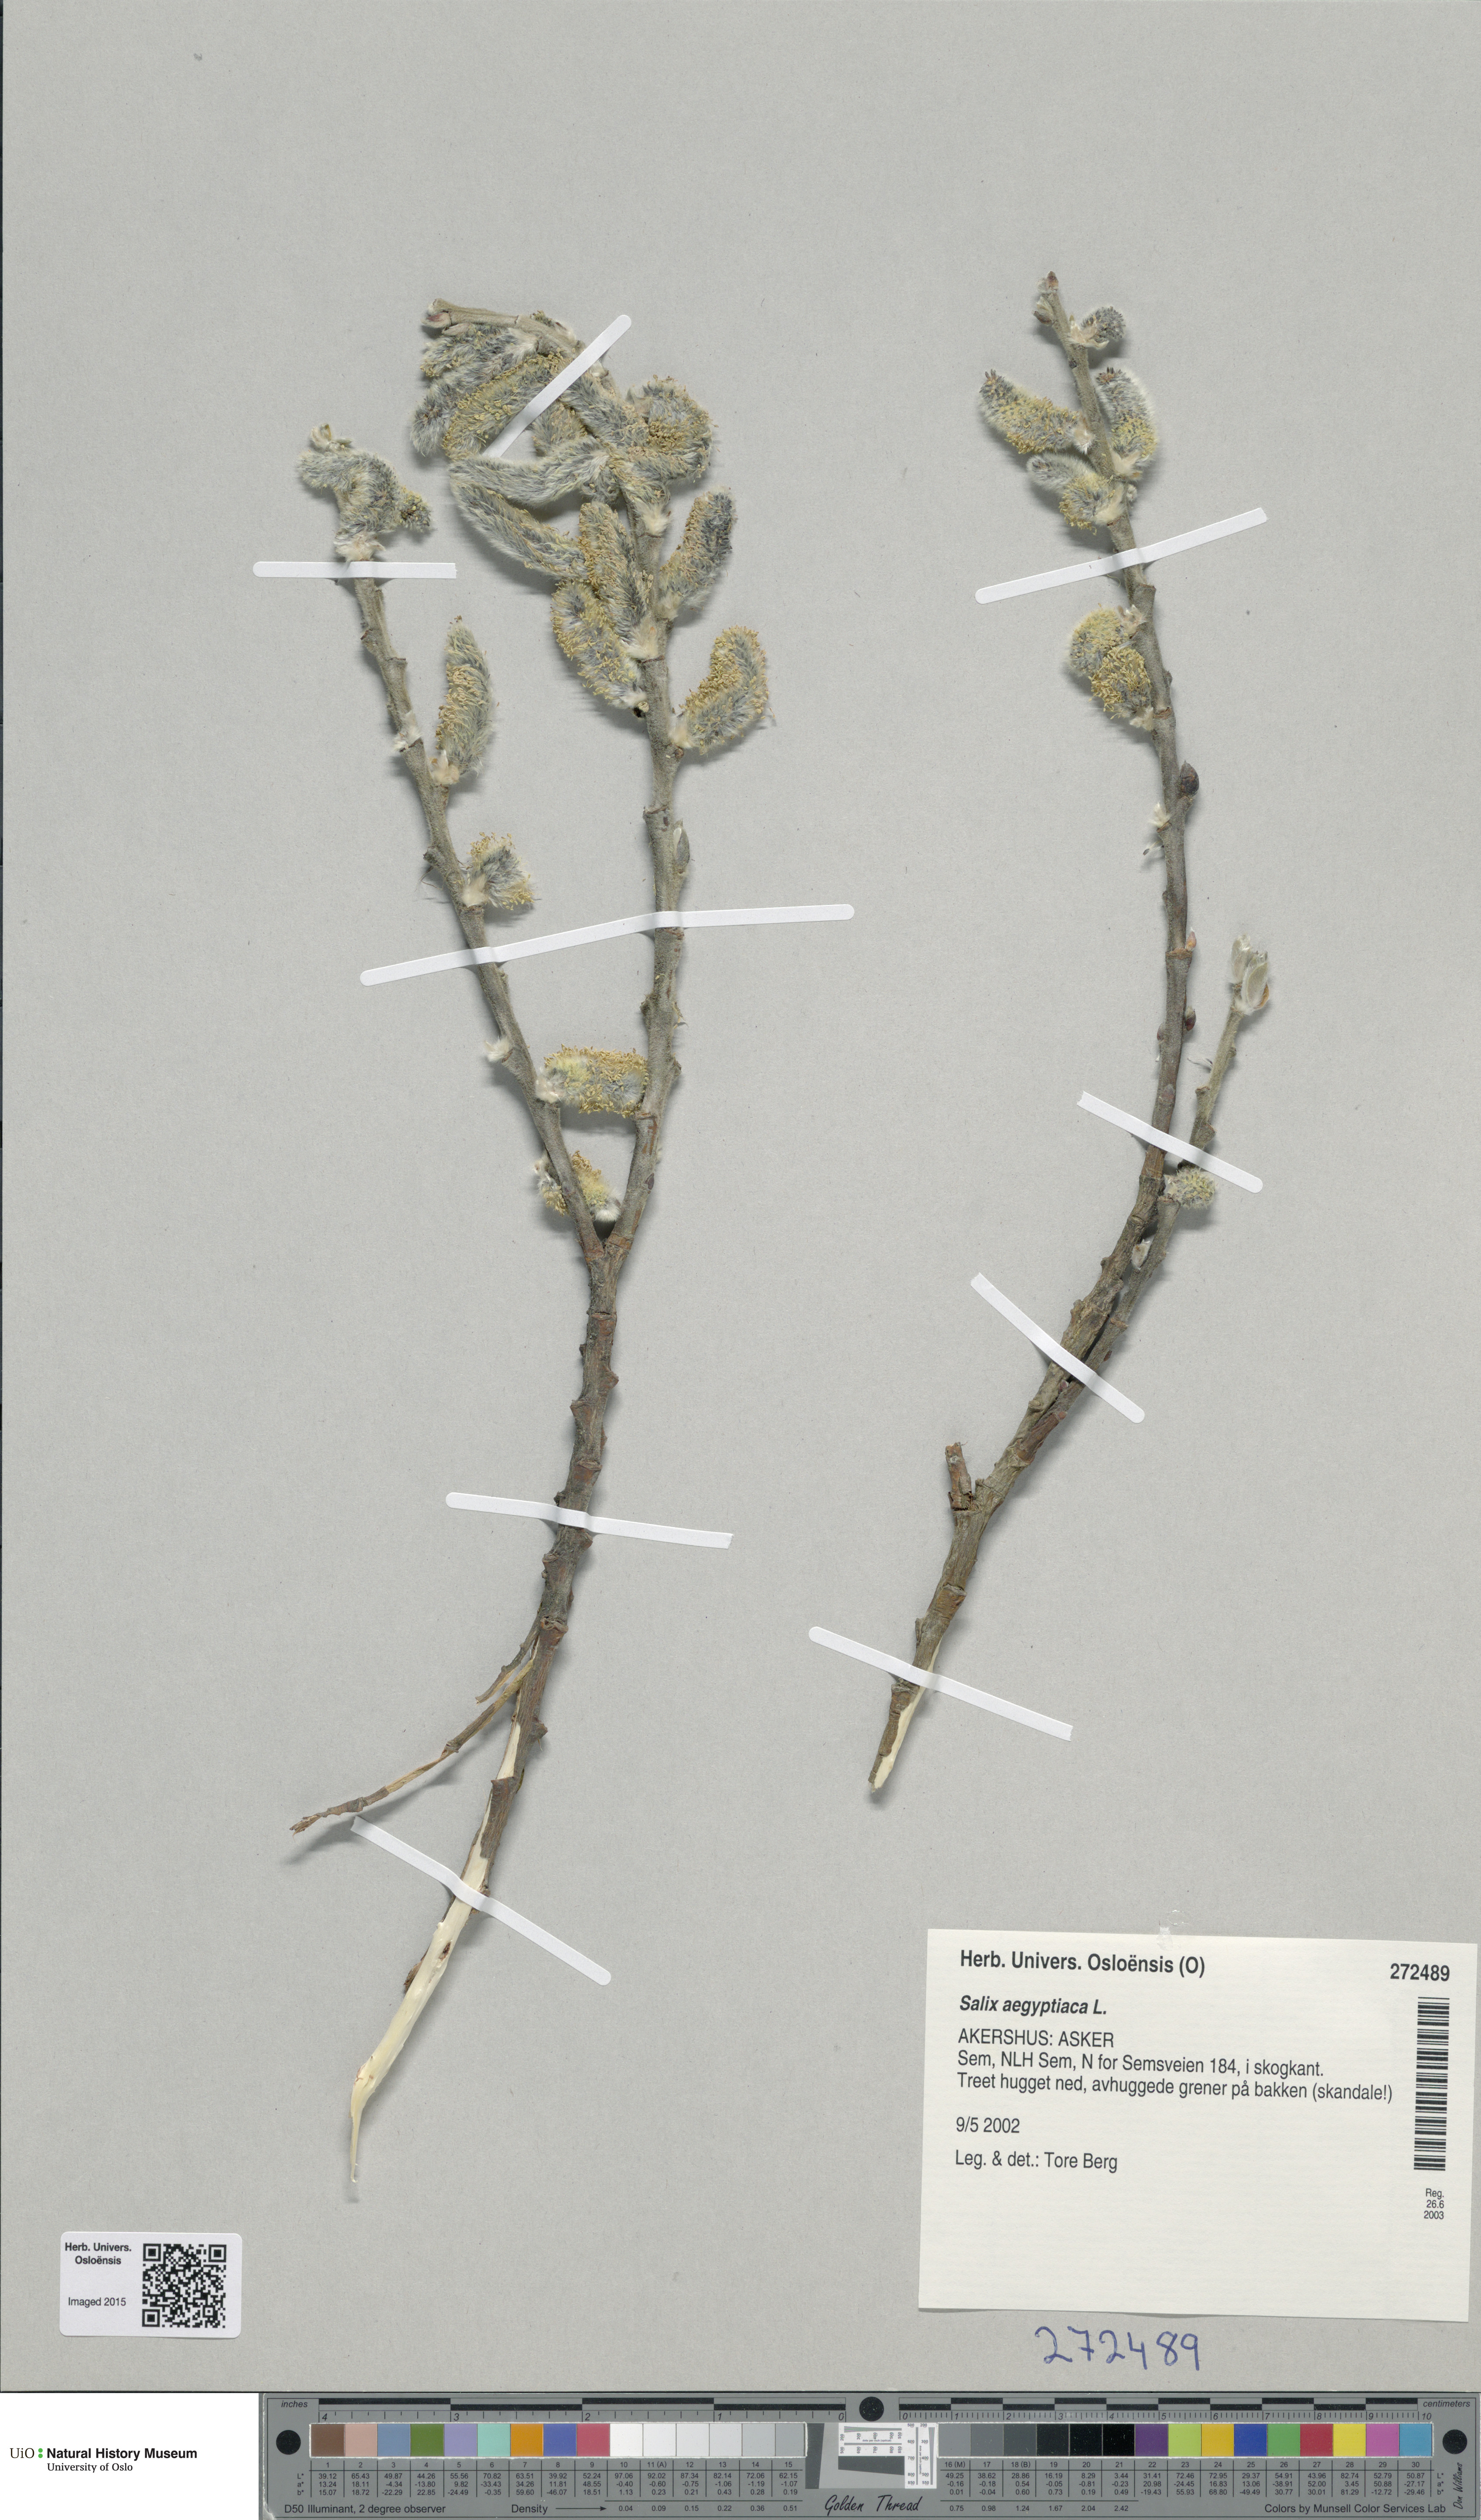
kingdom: Plantae
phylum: Tracheophyta
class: Magnoliopsida
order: Malpighiales
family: Salicaceae
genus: Salix
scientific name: Salix aegyptiaca
